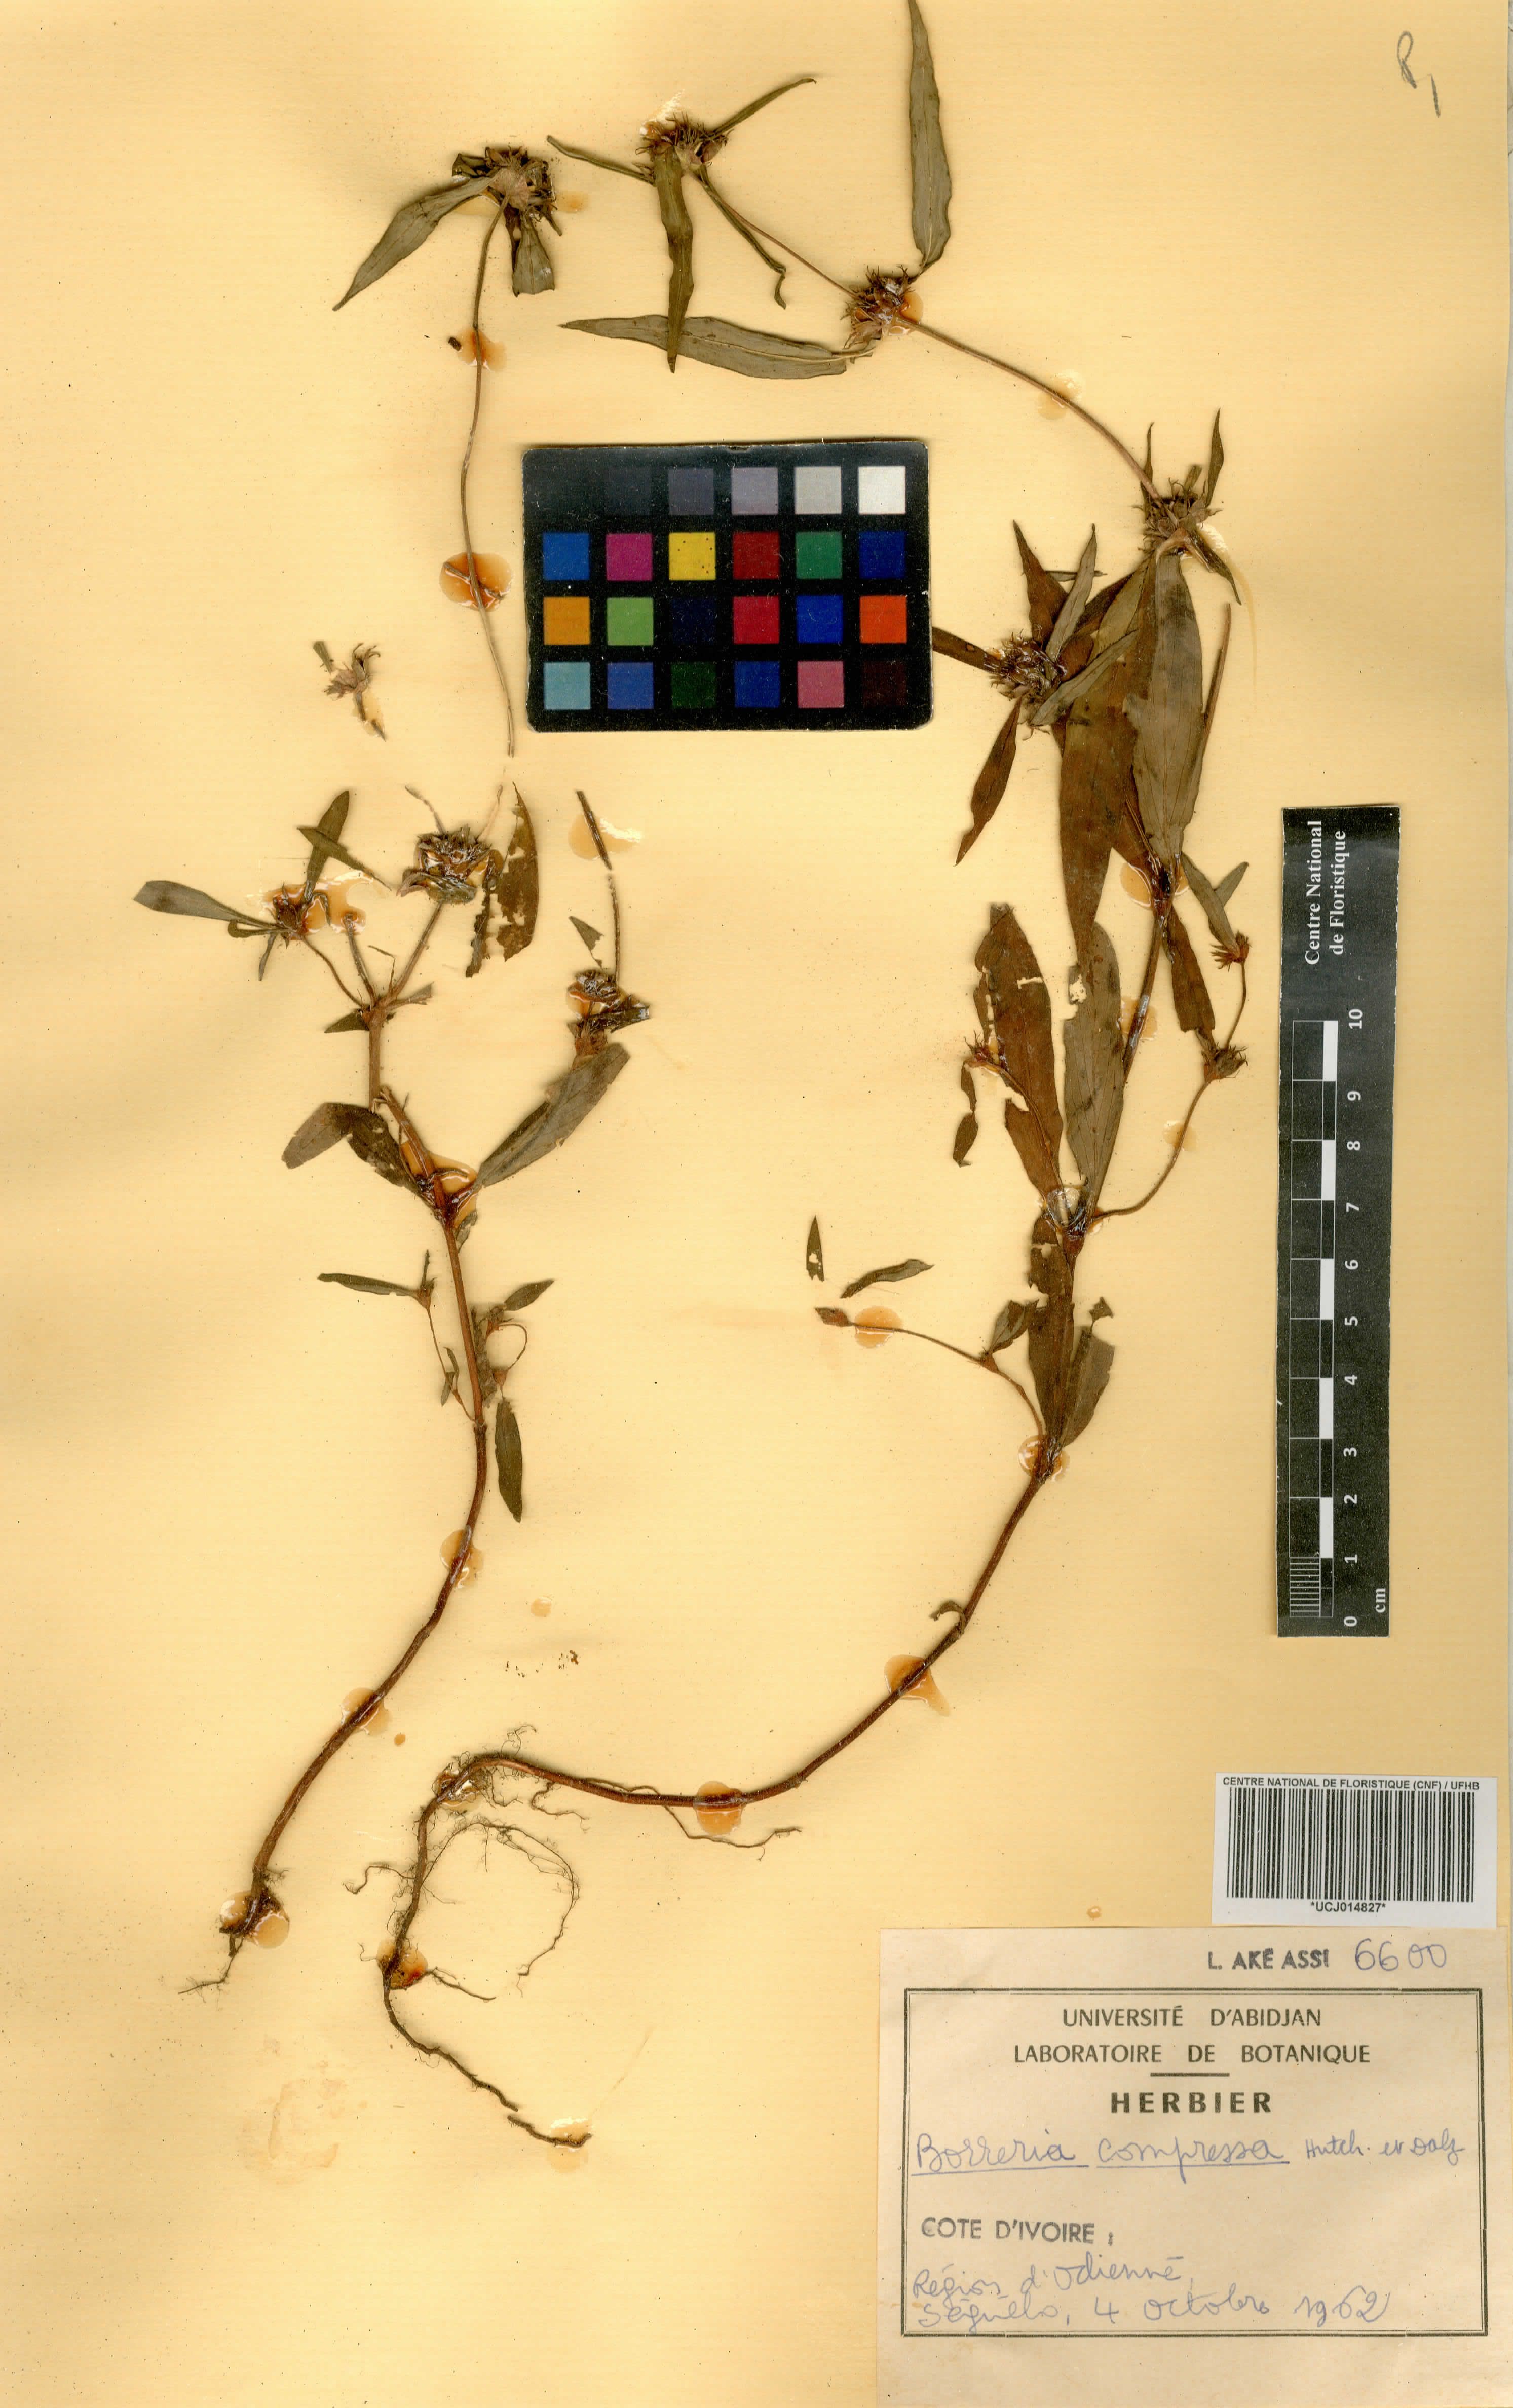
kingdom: Plantae
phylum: Tracheophyta
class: Magnoliopsida
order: Gentianales
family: Rubiaceae
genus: Spermacoce
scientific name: Spermacoce hepperiana
